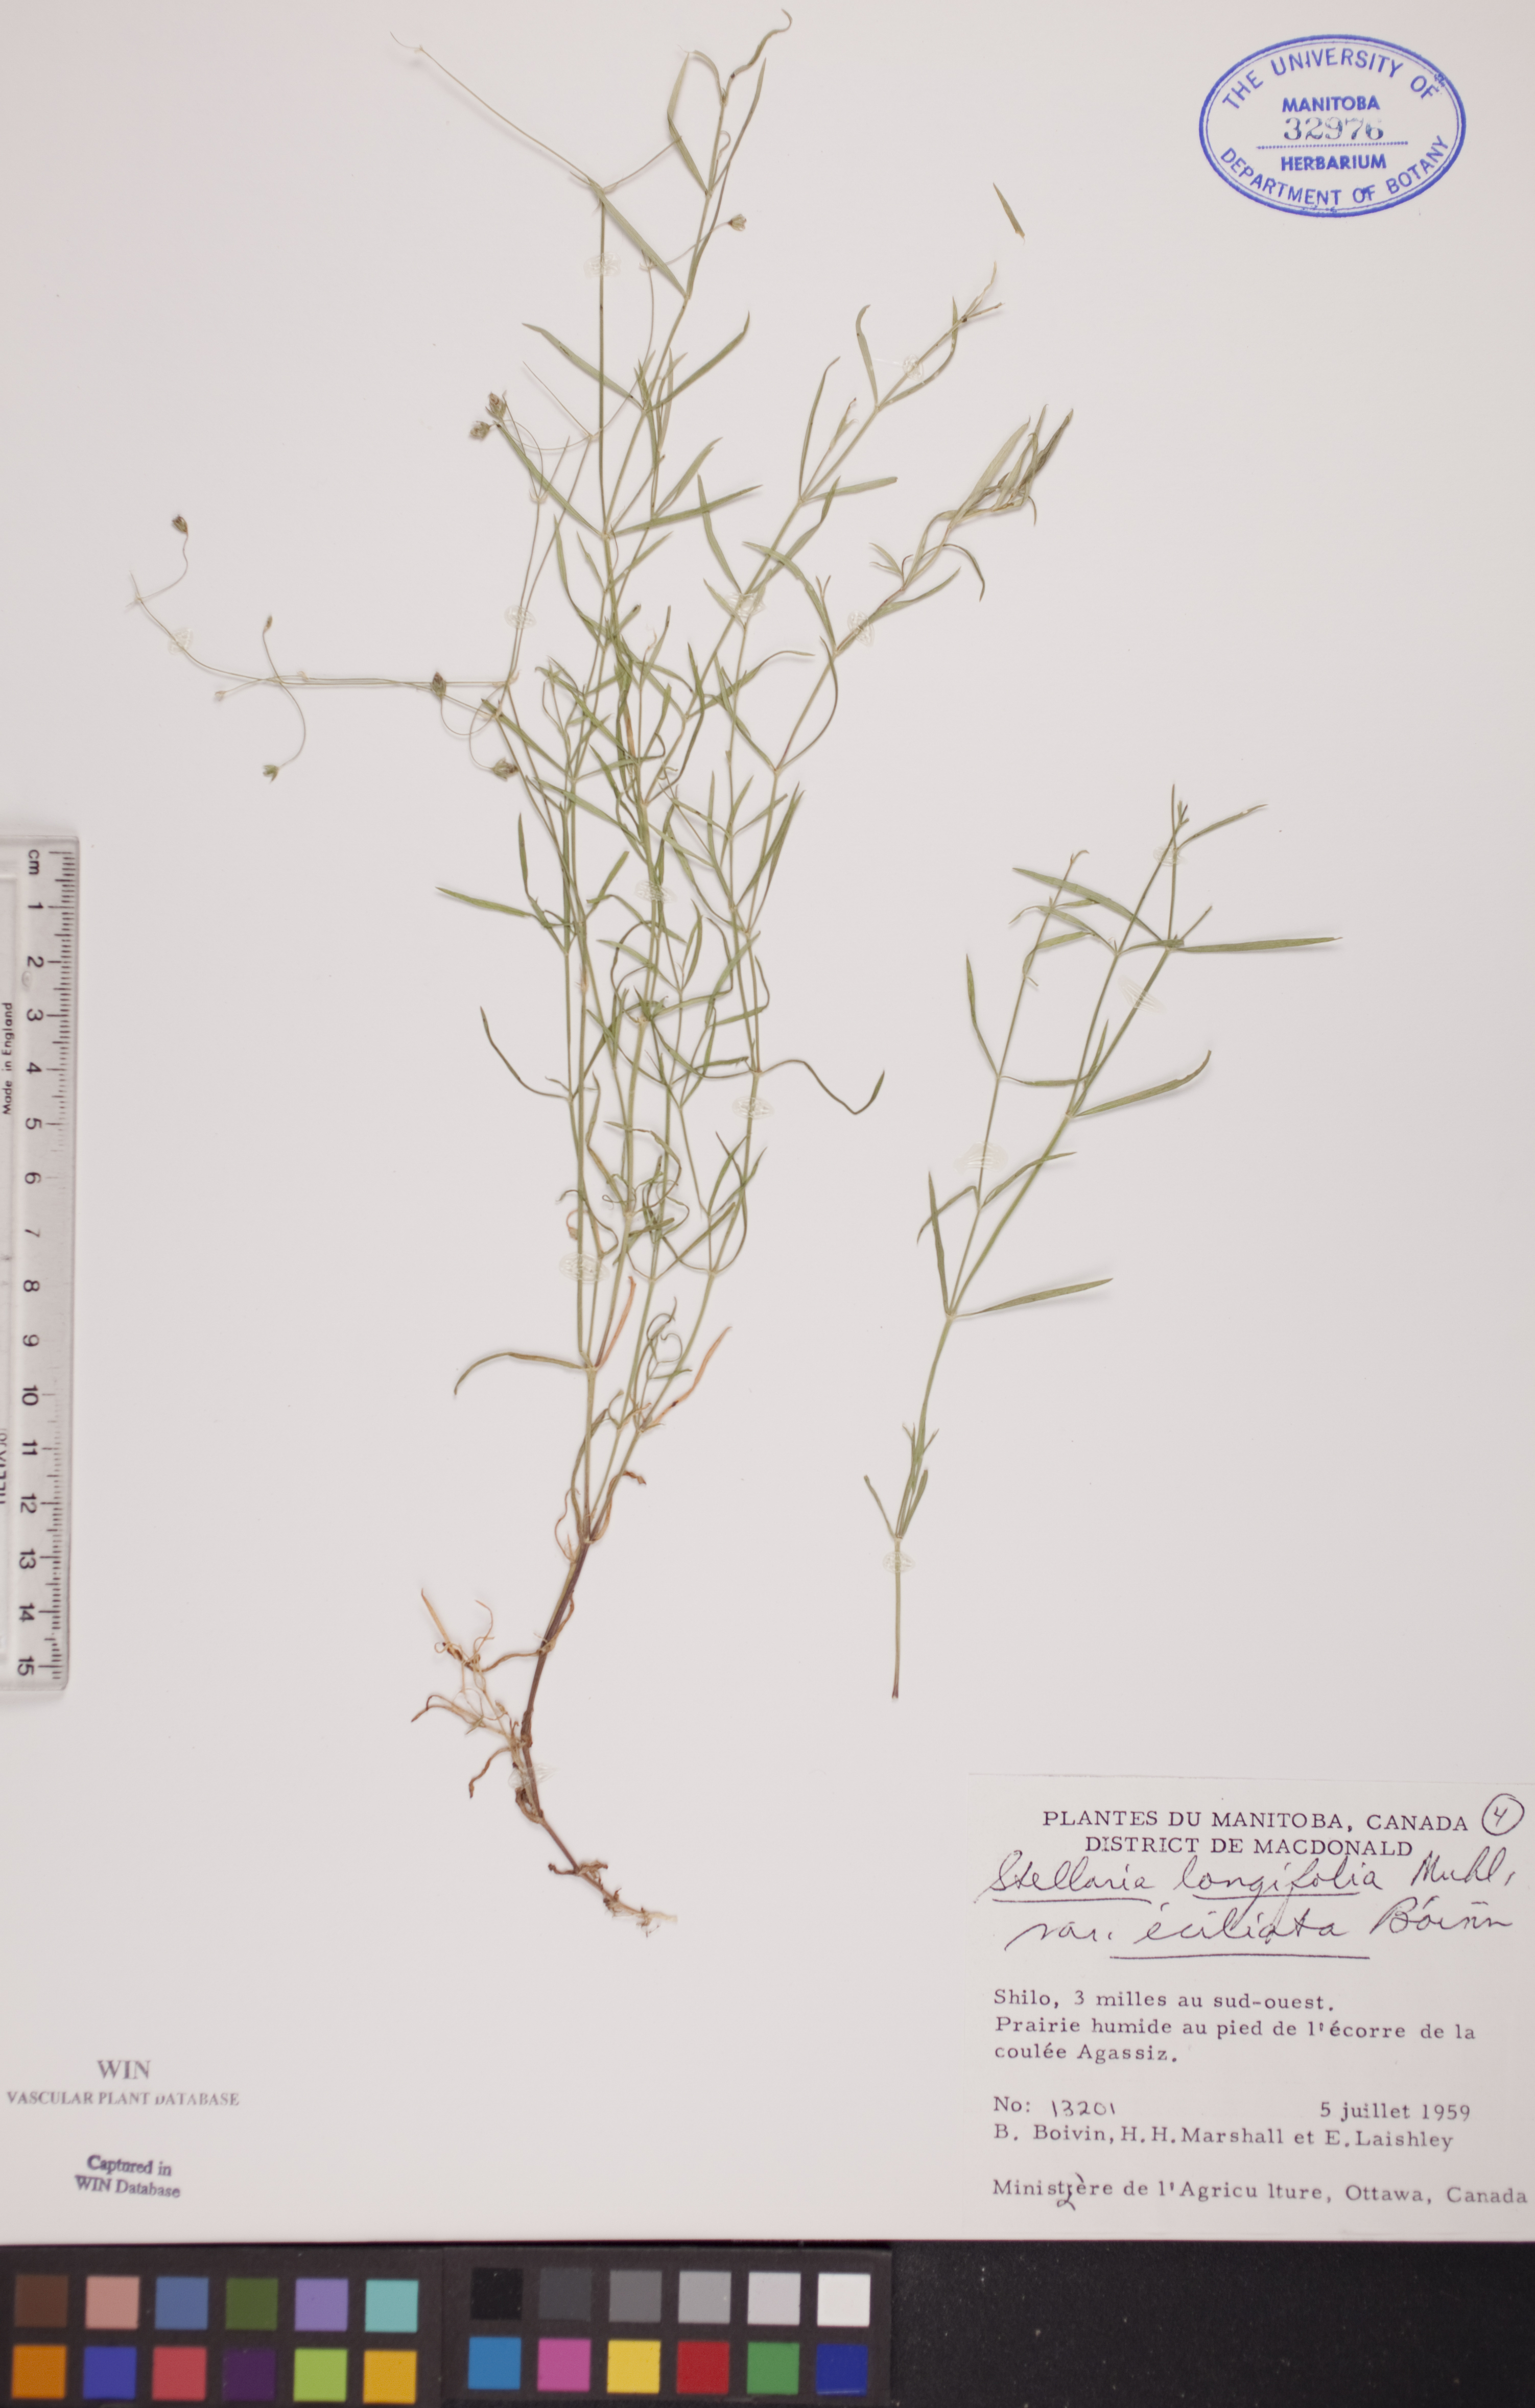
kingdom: Plantae
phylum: Tracheophyta
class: Magnoliopsida
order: Caryophyllales
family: Caryophyllaceae
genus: Stellaria
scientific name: Stellaria longifolia
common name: Long-leaved chickweed
